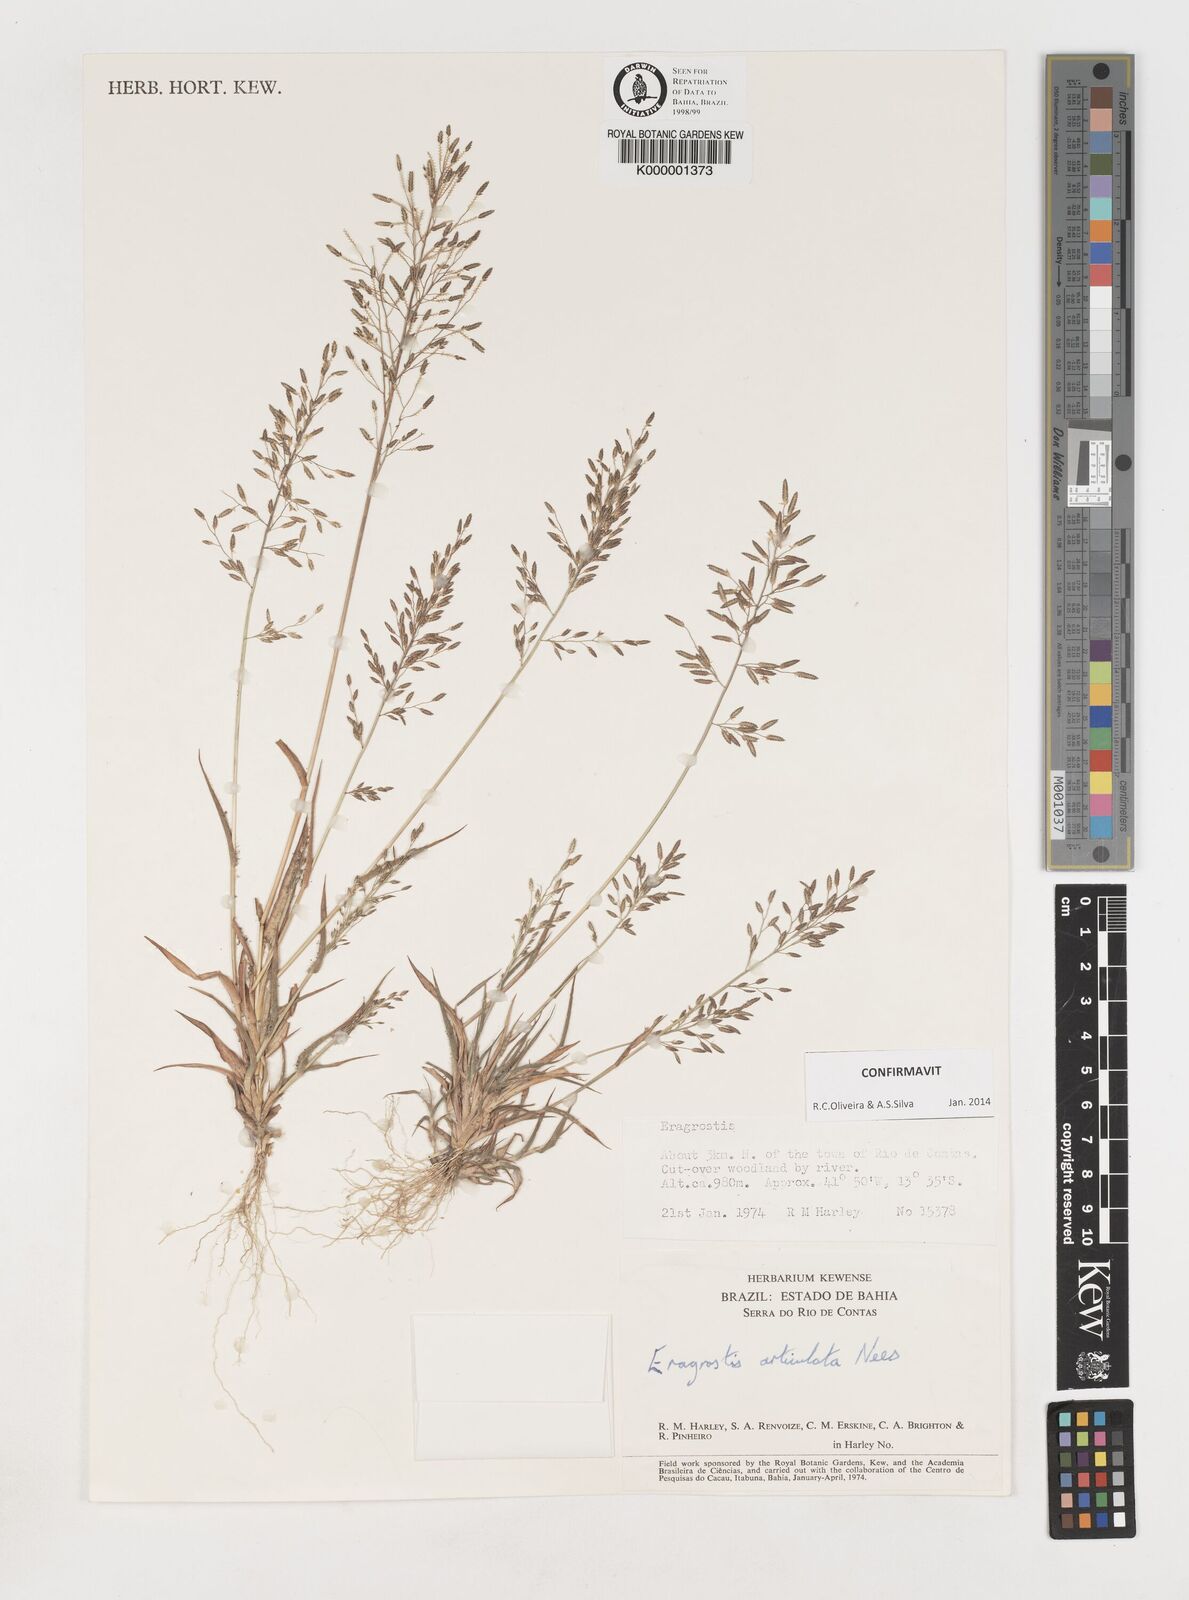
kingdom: Plantae
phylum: Tracheophyta
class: Liliopsida
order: Poales
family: Poaceae
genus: Eragrostis
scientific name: Eragrostis articulata
